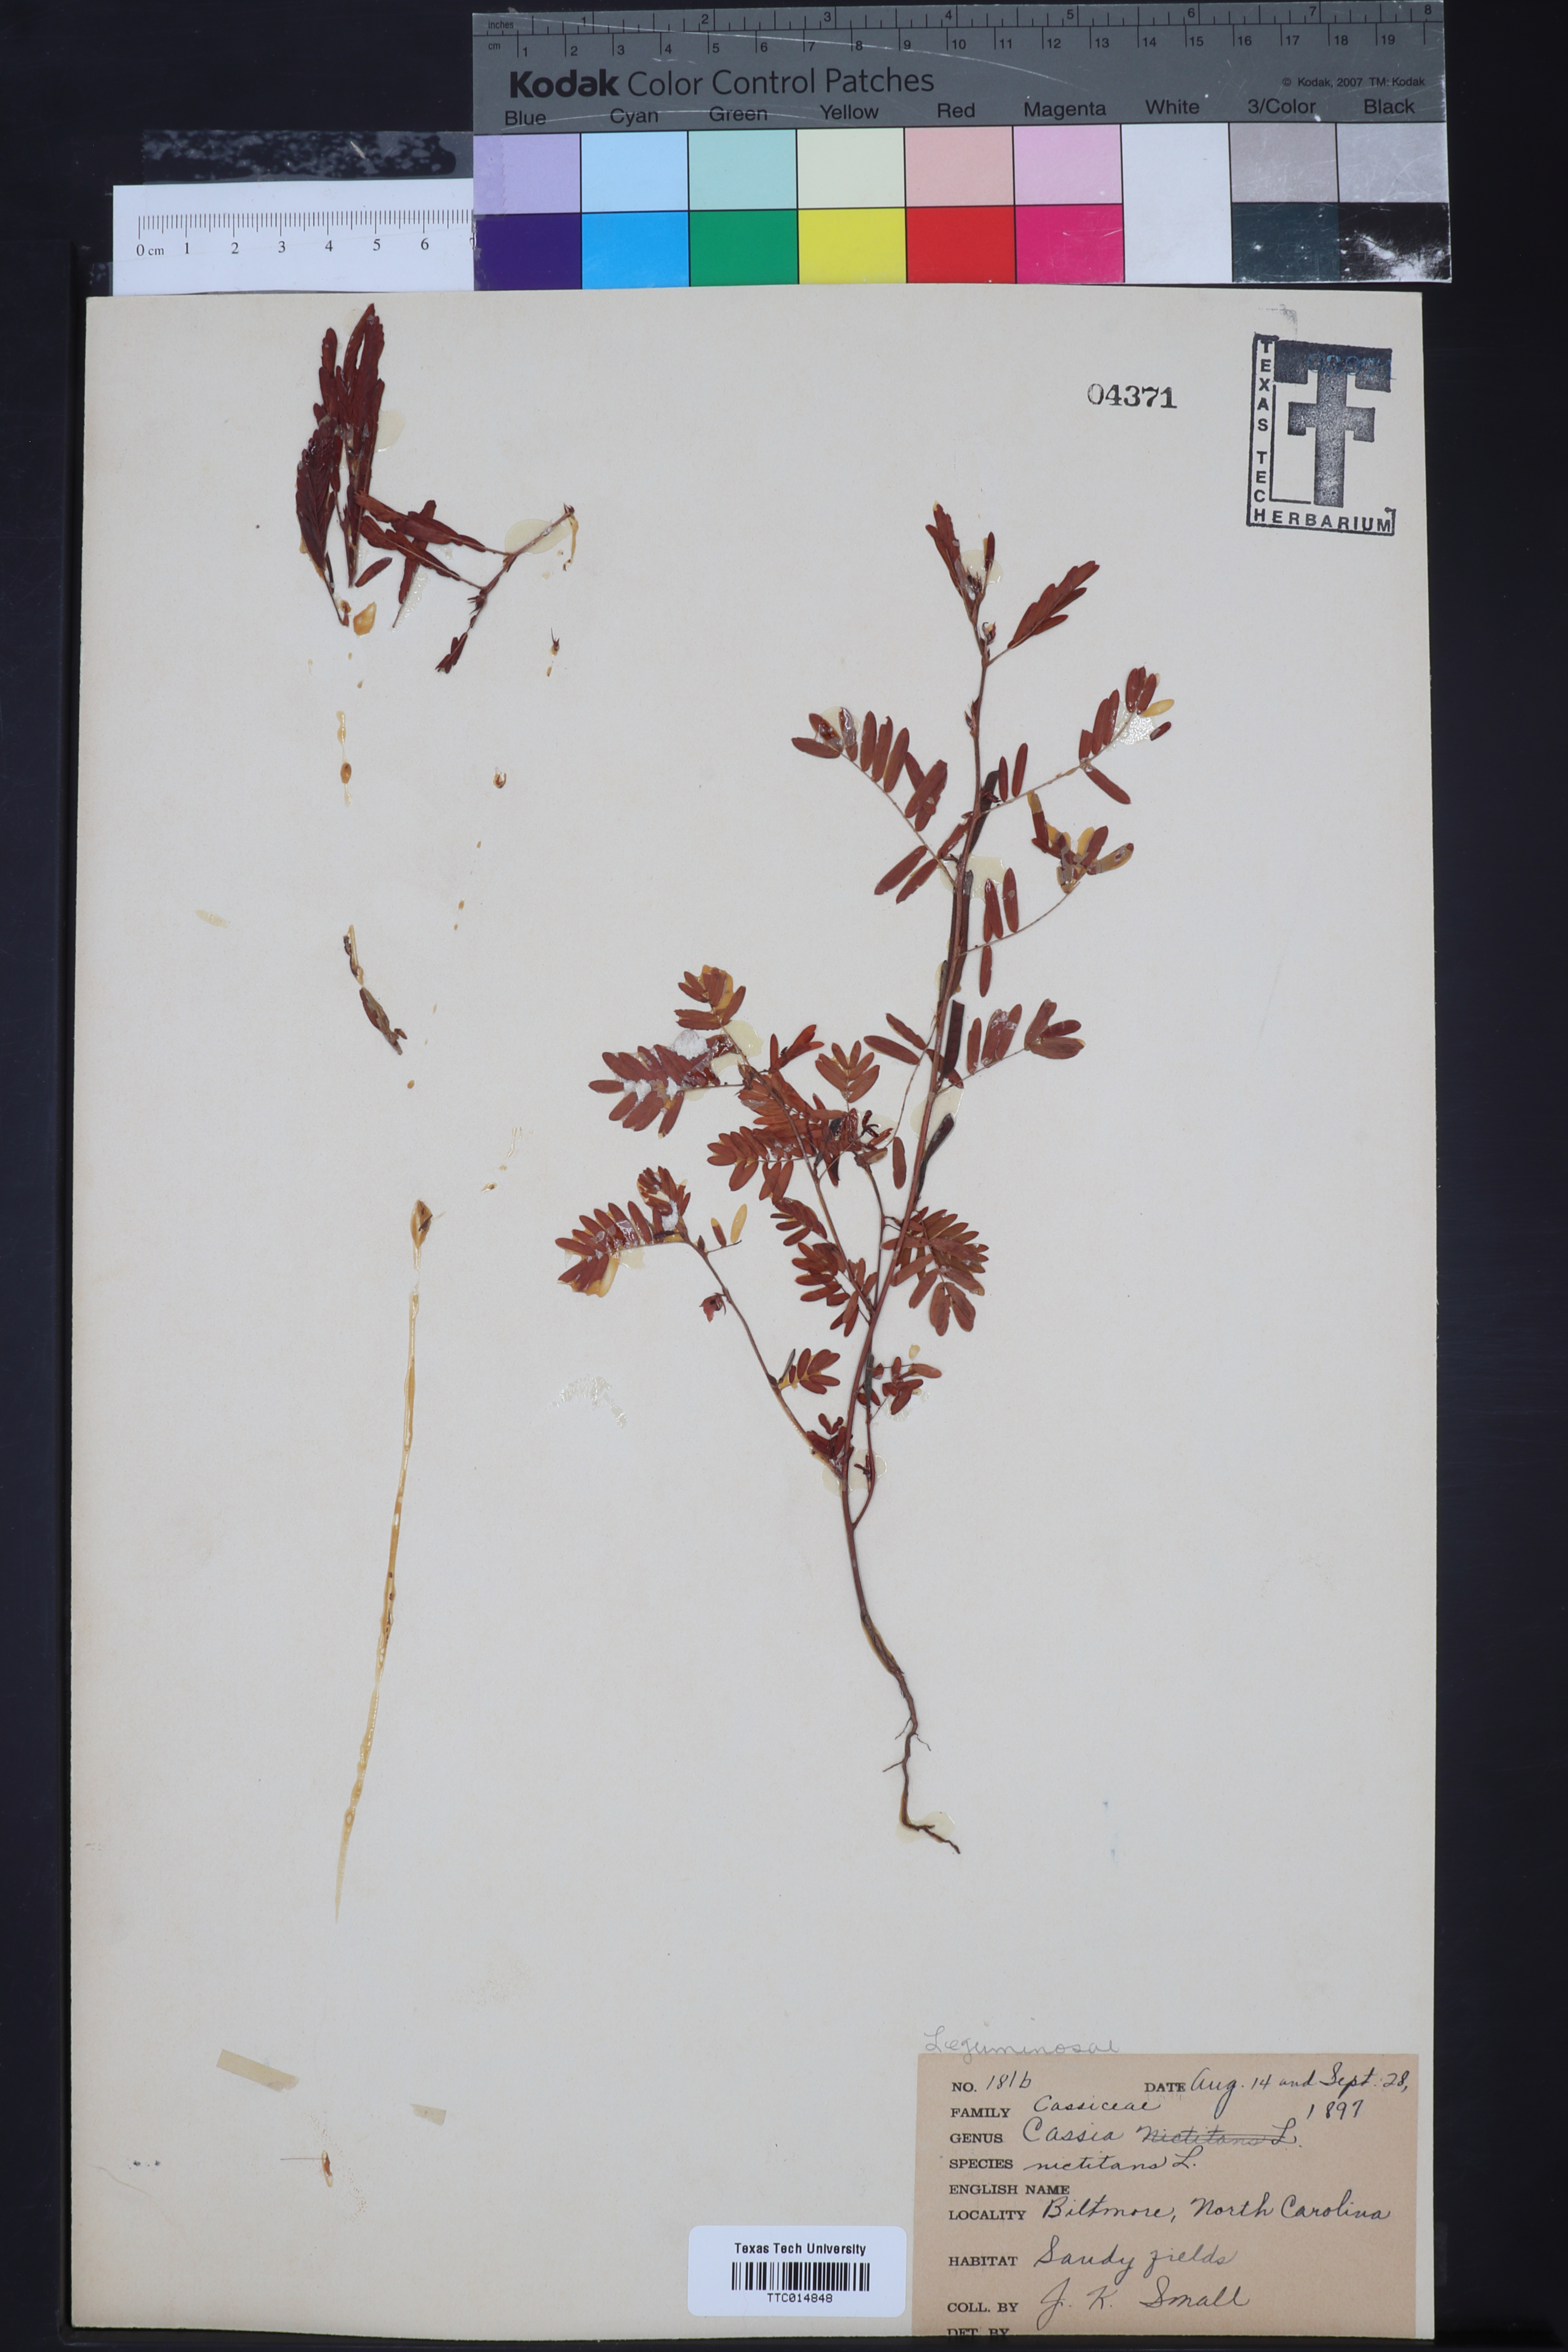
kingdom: Plantae
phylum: Tracheophyta
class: Magnoliopsida
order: Fabales
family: Fabaceae
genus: Chamaecrista
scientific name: Chamaecrista nictitans
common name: Sensitive cassia
